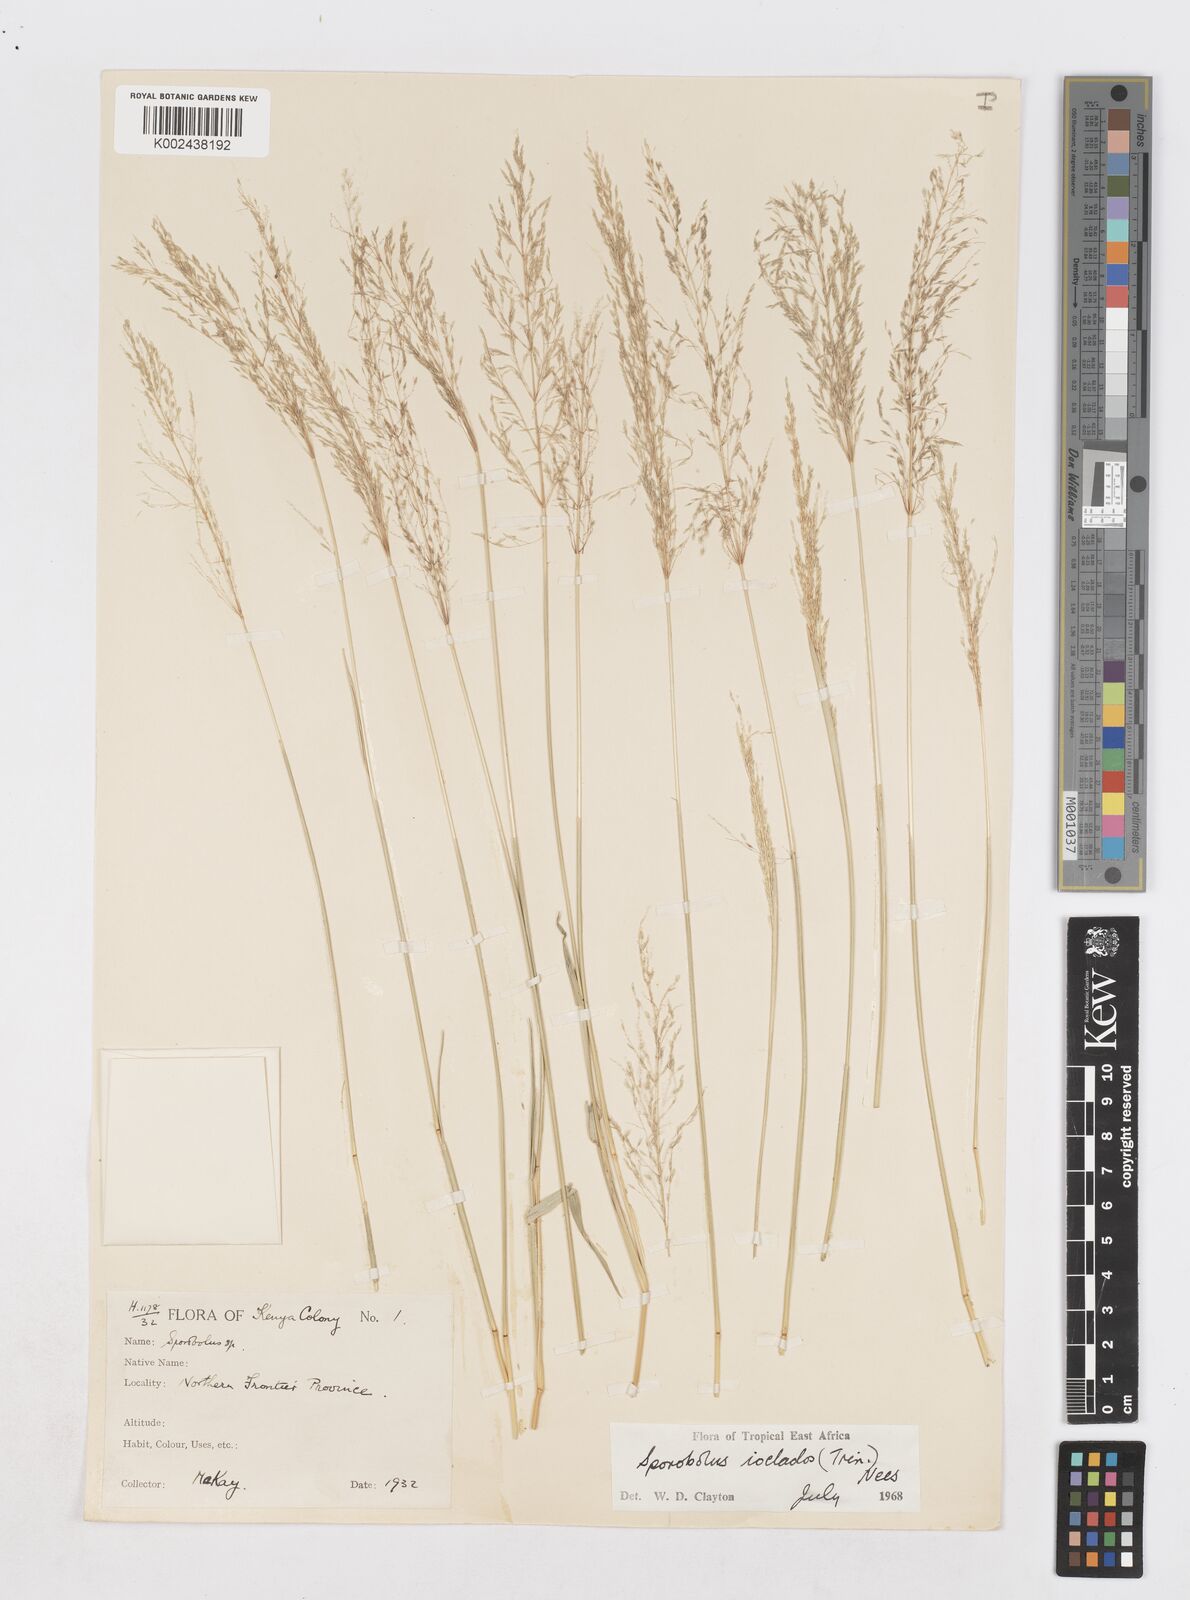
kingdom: Plantae
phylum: Tracheophyta
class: Liliopsida
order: Poales
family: Poaceae
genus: Sporobolus
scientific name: Sporobolus ioclados
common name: Pan dropseed
